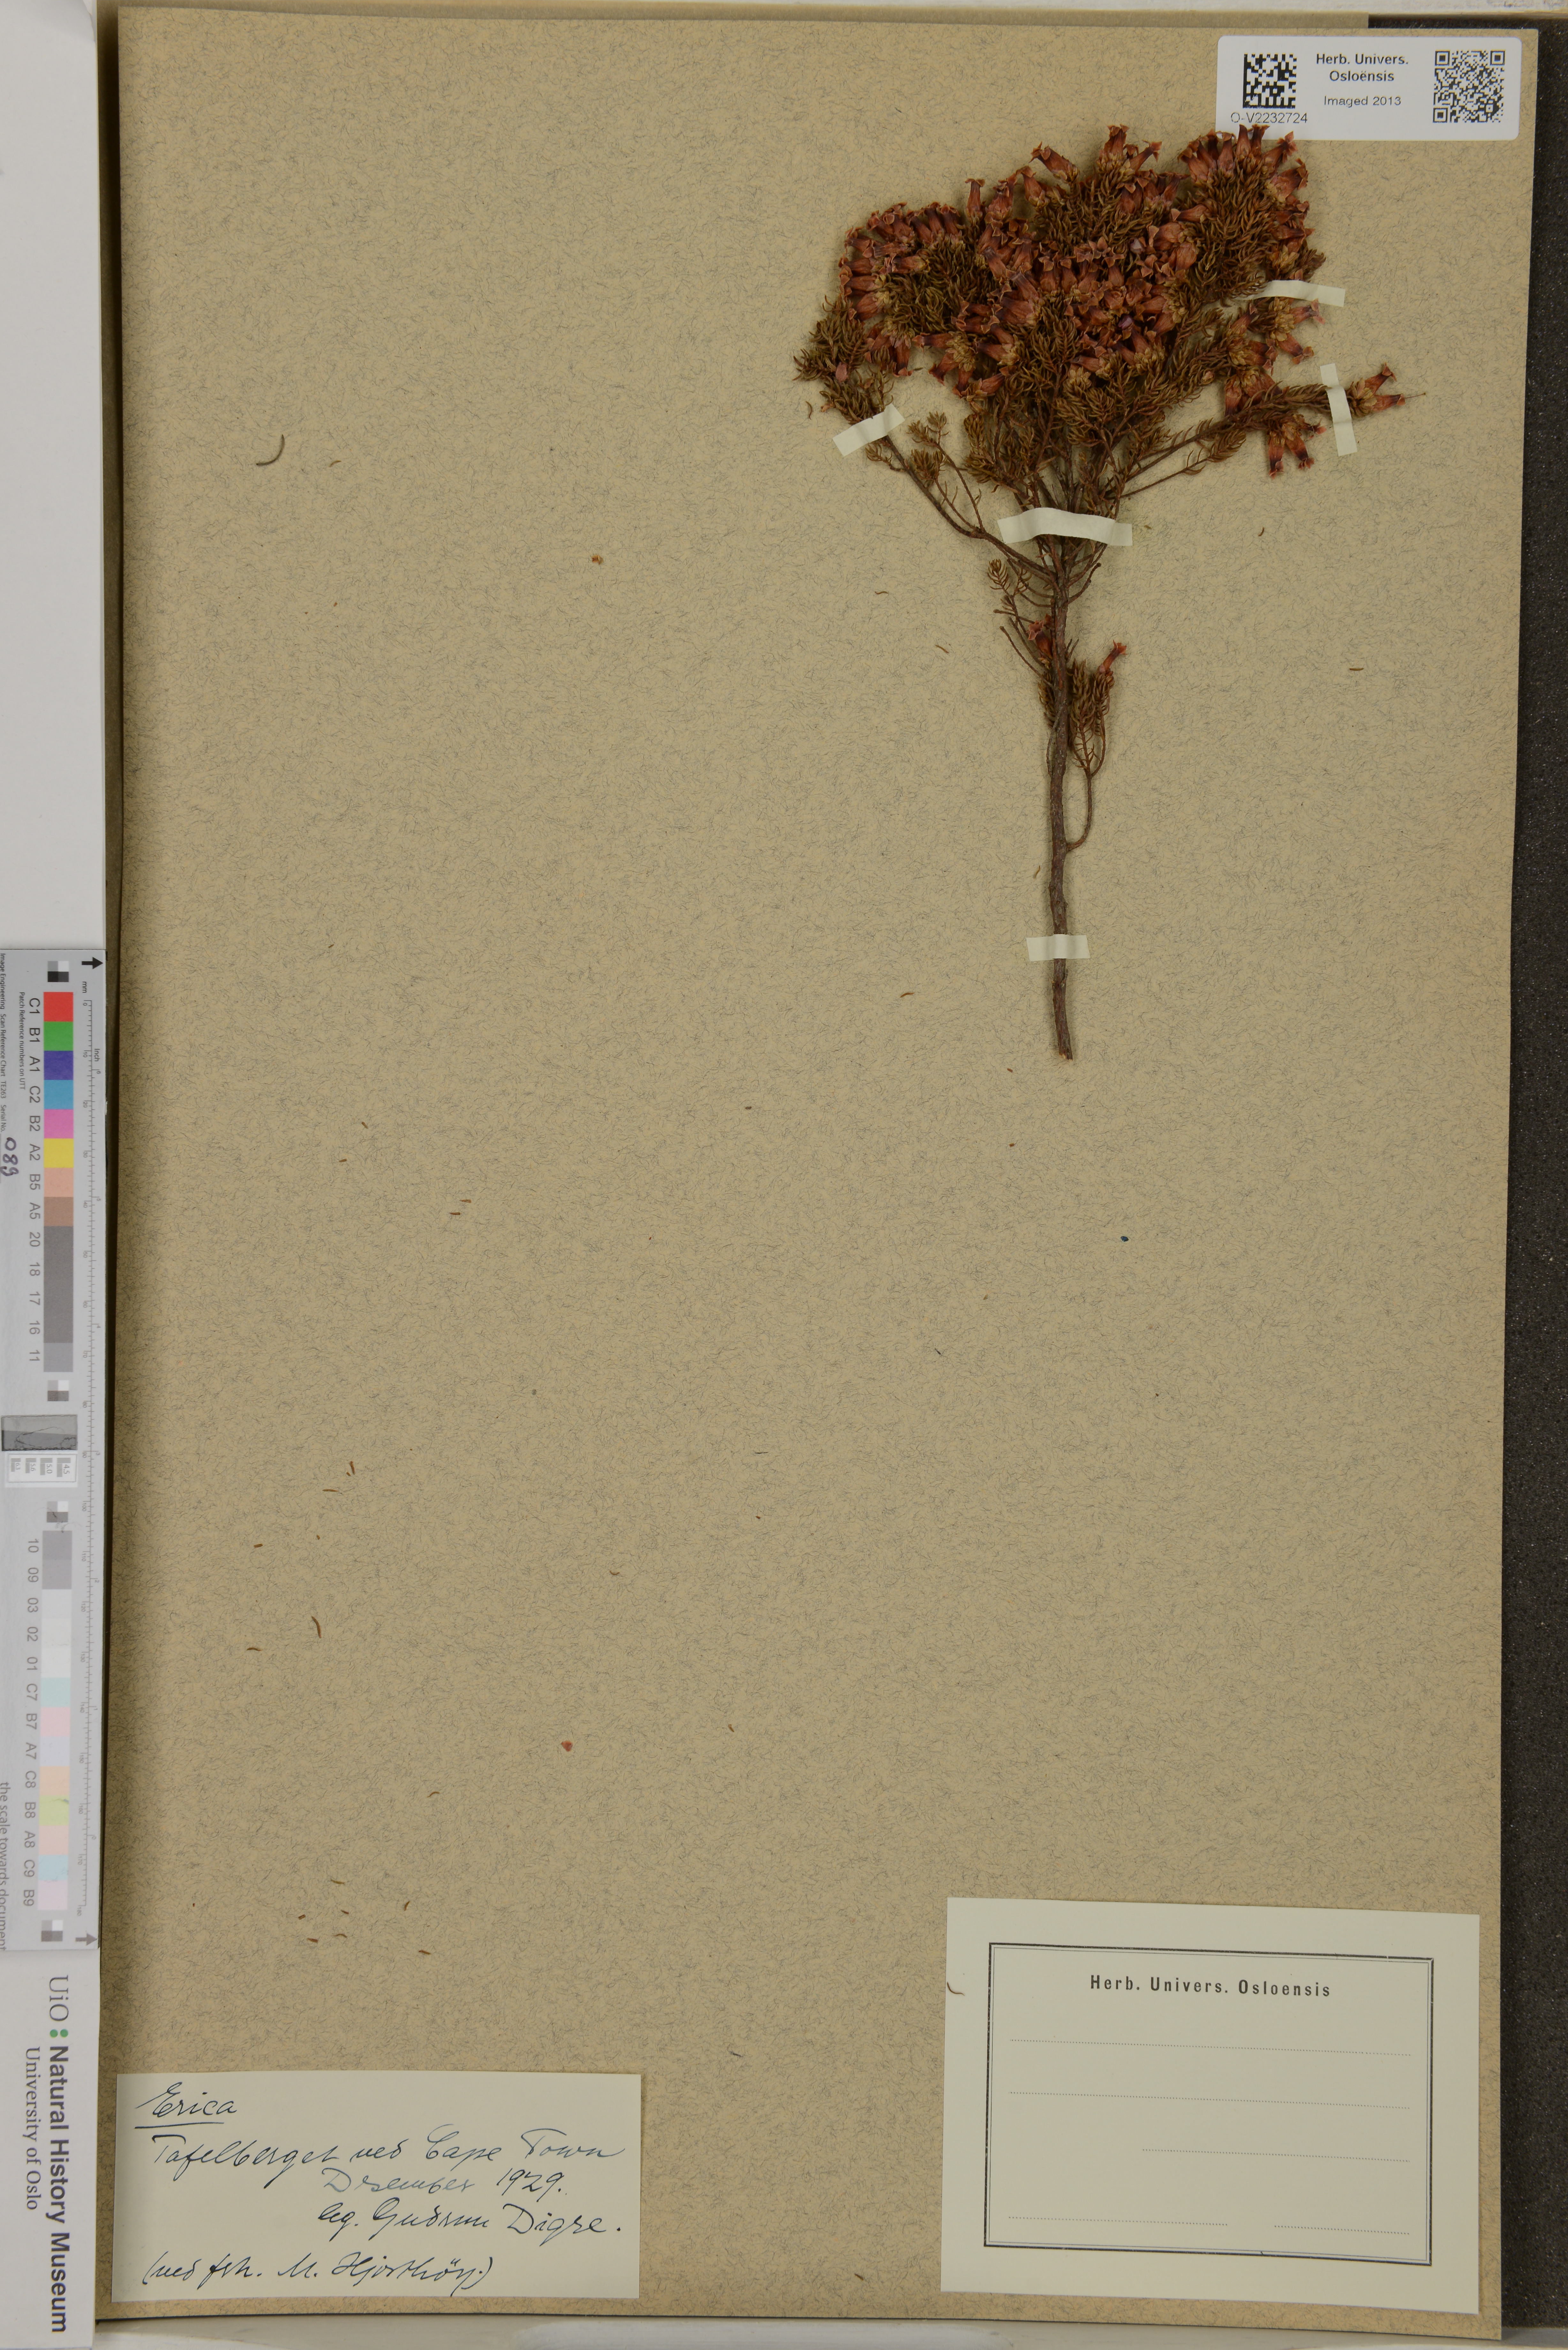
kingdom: Plantae
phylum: Tracheophyta
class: Magnoliopsida
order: Ericales
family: Ericaceae
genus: Erica
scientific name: Erica
